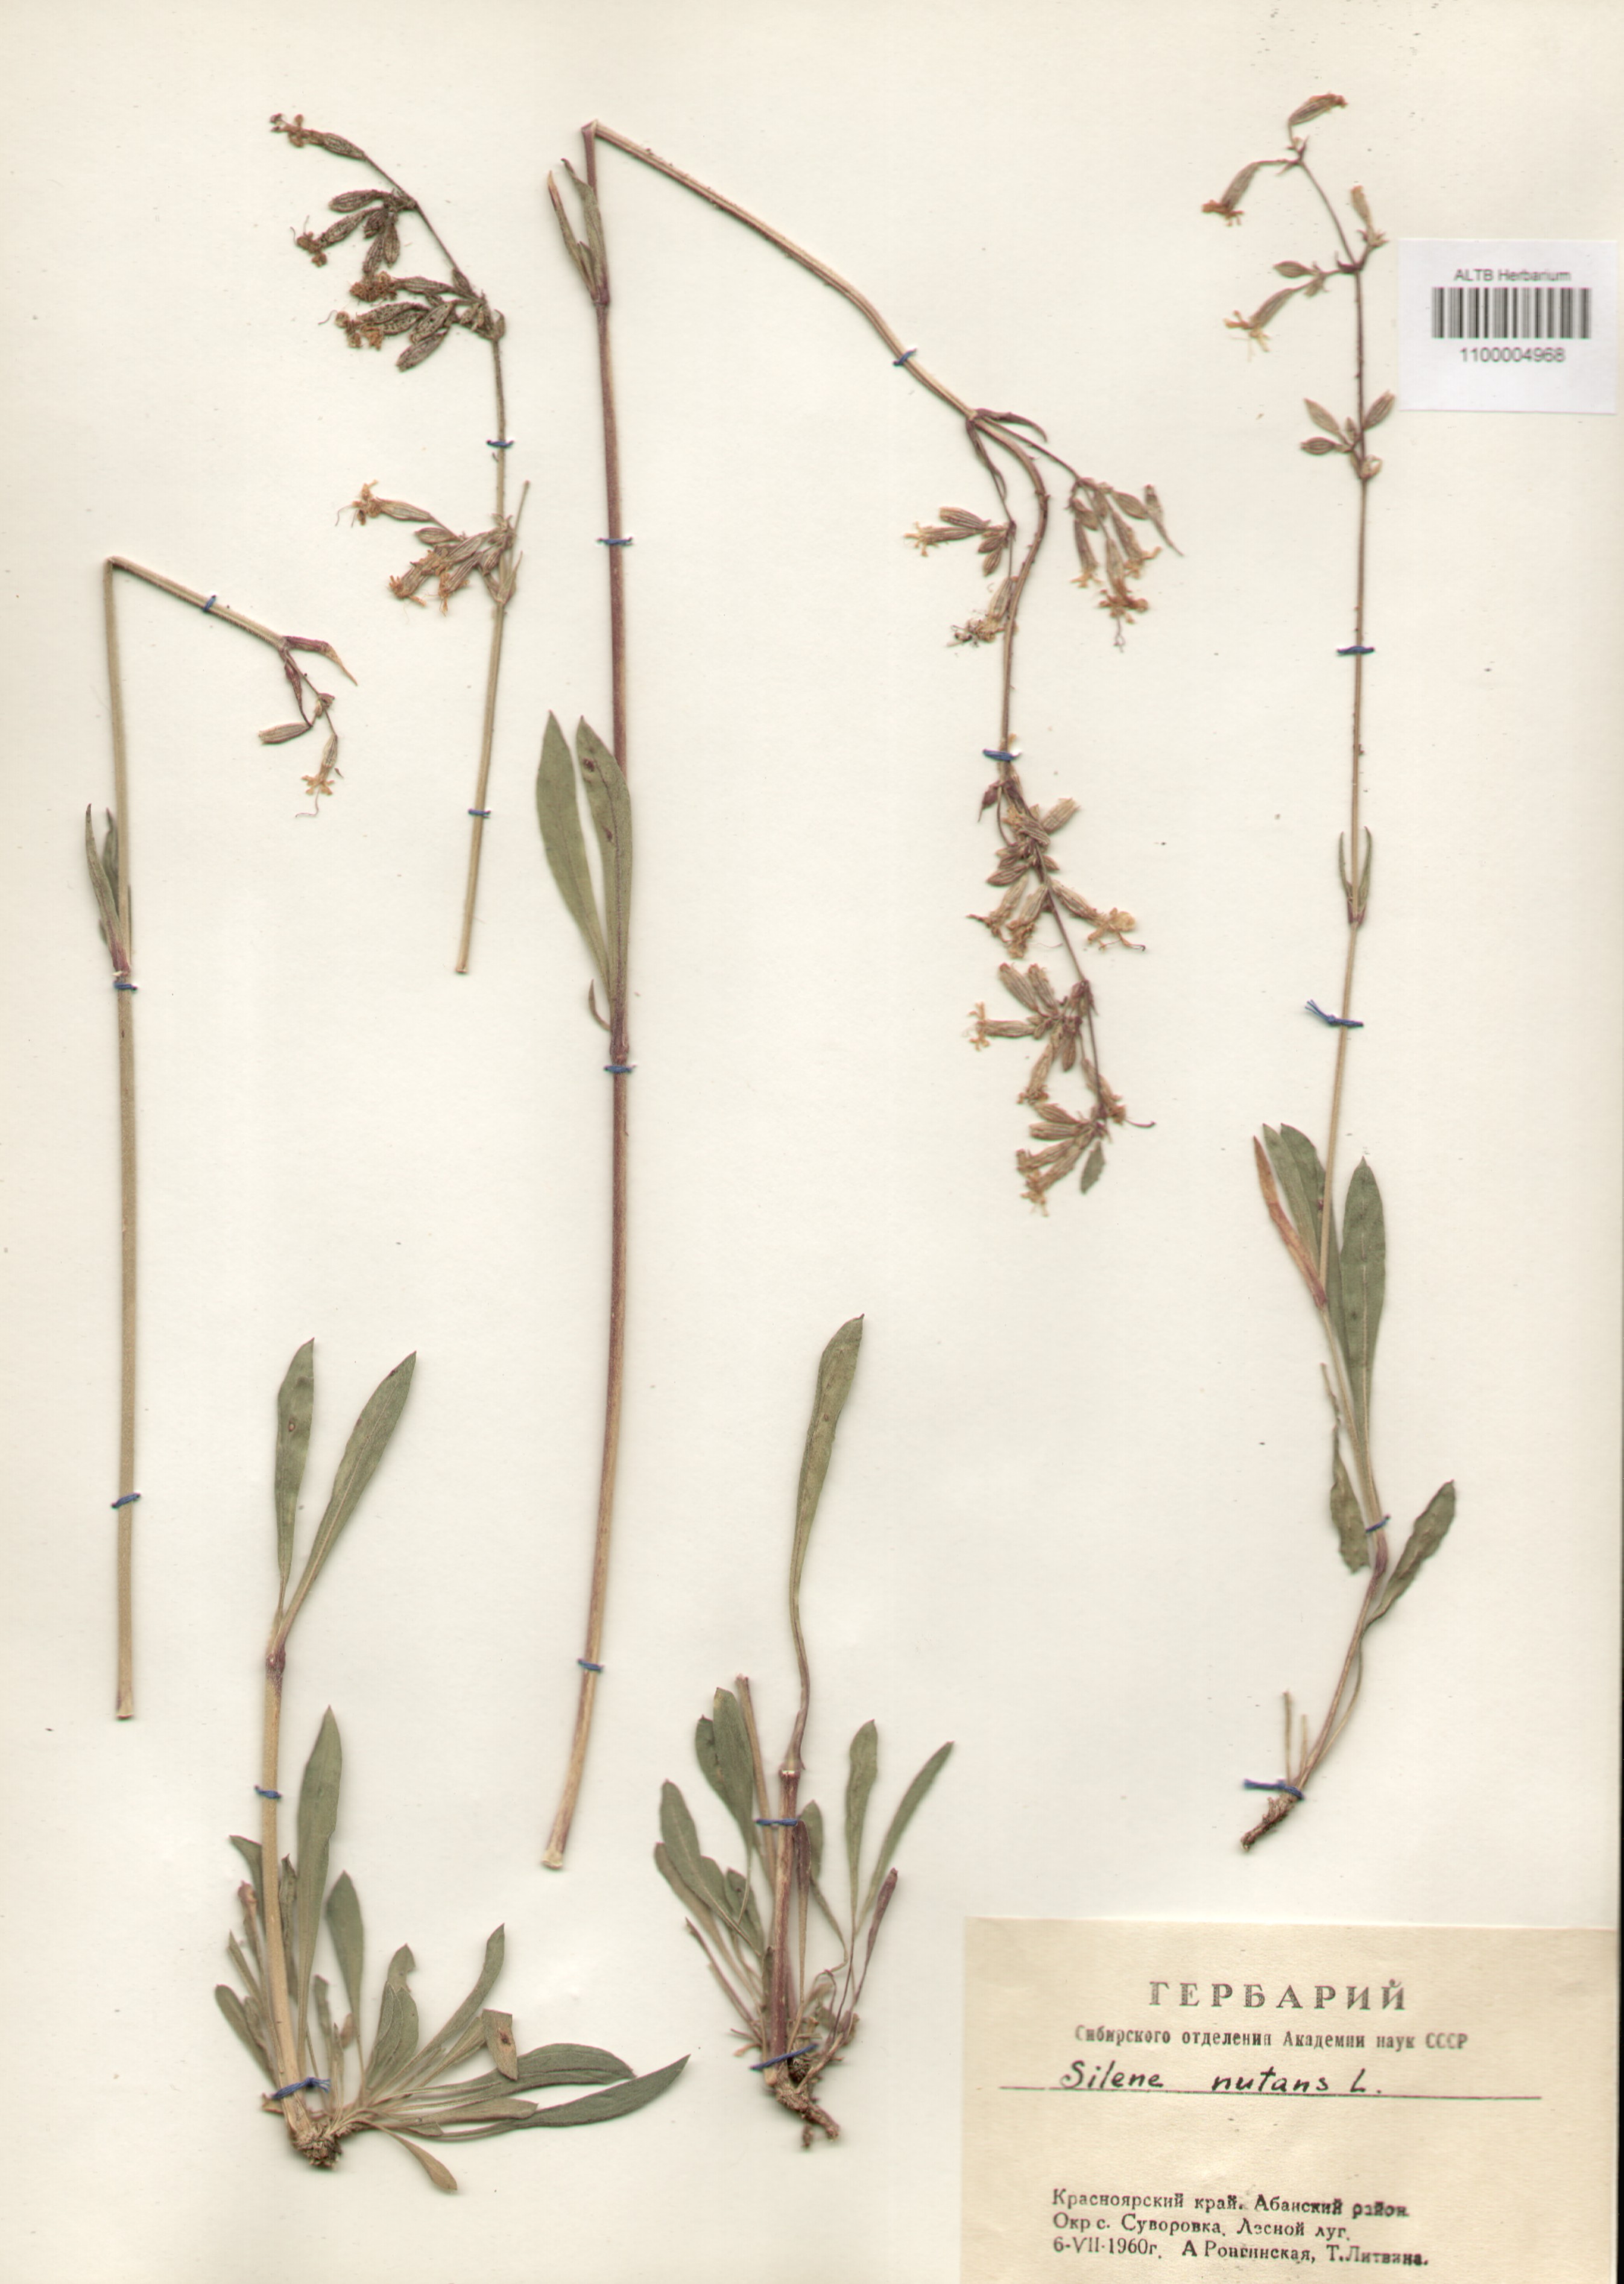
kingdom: Plantae
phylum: Tracheophyta
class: Magnoliopsida
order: Caryophyllales
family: Caryophyllaceae
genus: Silene
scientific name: Silene nutans
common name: Nottingham catchfly
